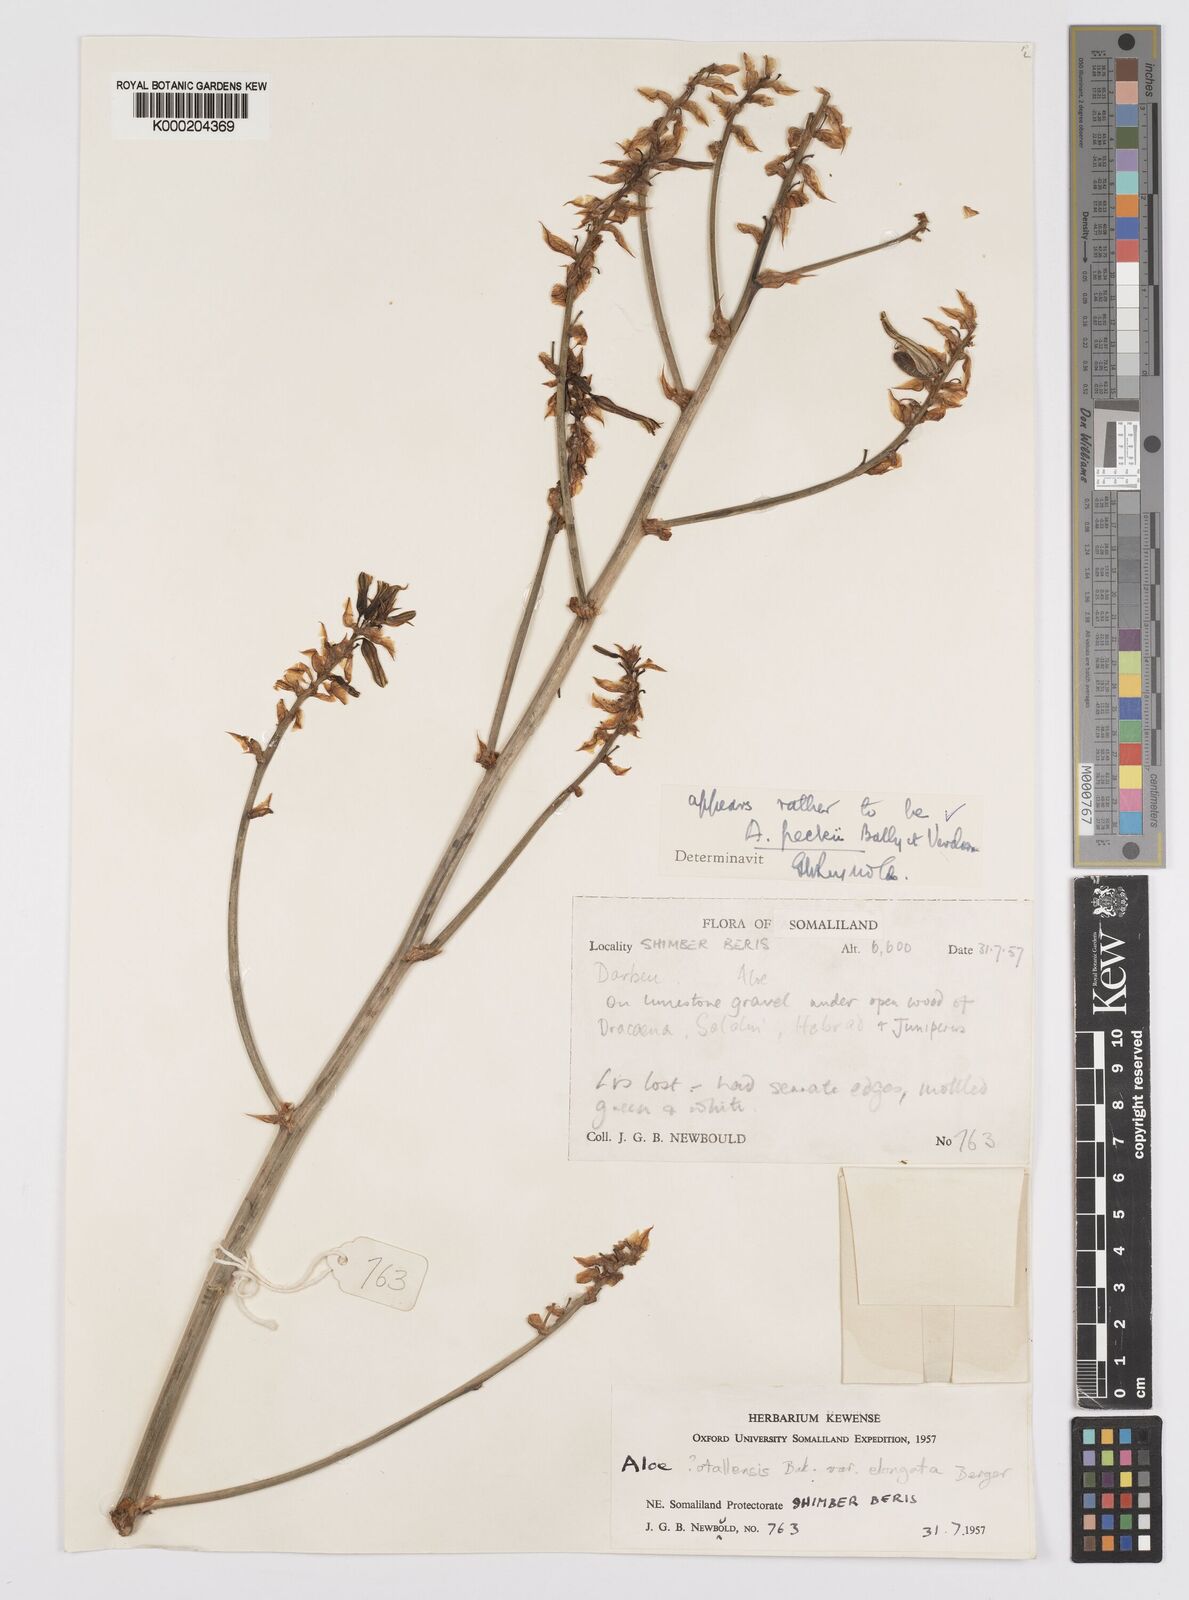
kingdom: Plantae
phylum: Tracheophyta
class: Liliopsida
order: Asparagales
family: Asphodelaceae
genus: Aloe
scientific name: Aloe peckii
